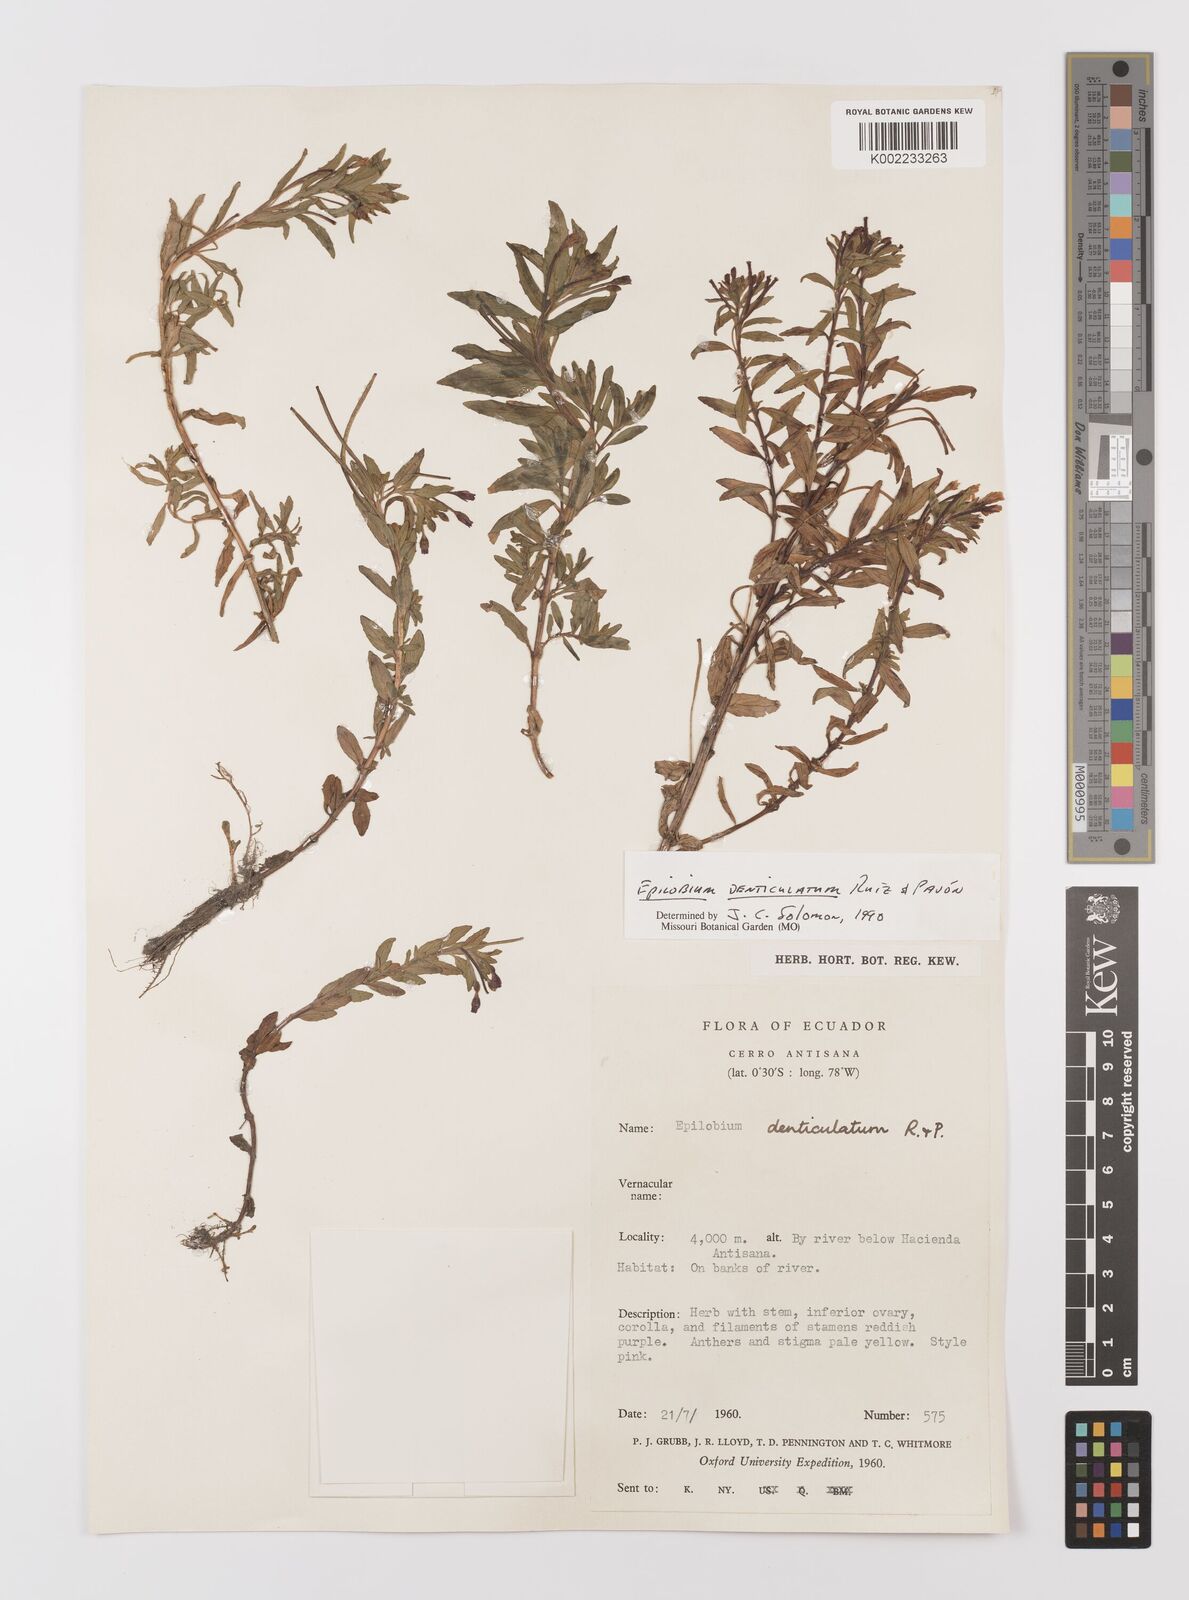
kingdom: Plantae
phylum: Tracheophyta
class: Magnoliopsida
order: Myrtales
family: Onagraceae
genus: Epilobium
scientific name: Epilobium denticulatum
